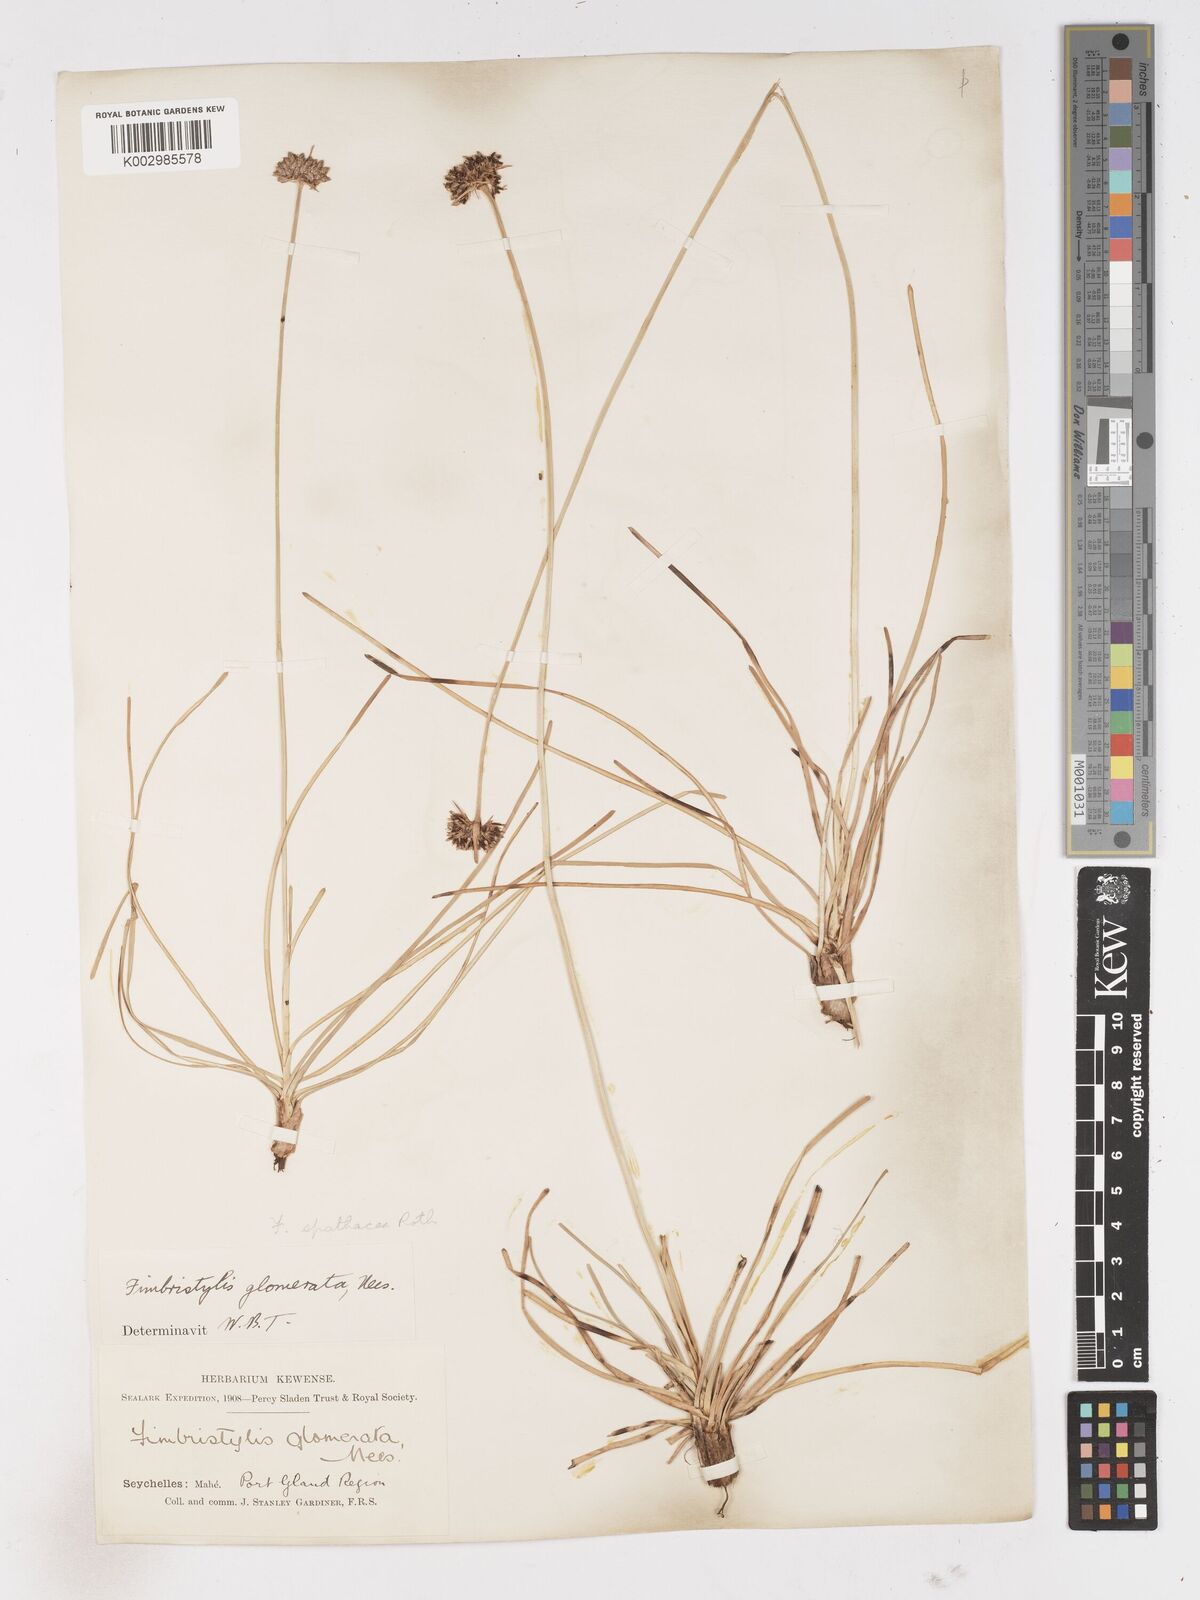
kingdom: Plantae
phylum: Tracheophyta
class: Liliopsida
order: Poales
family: Cyperaceae
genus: Fimbristylis
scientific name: Fimbristylis cymosa
